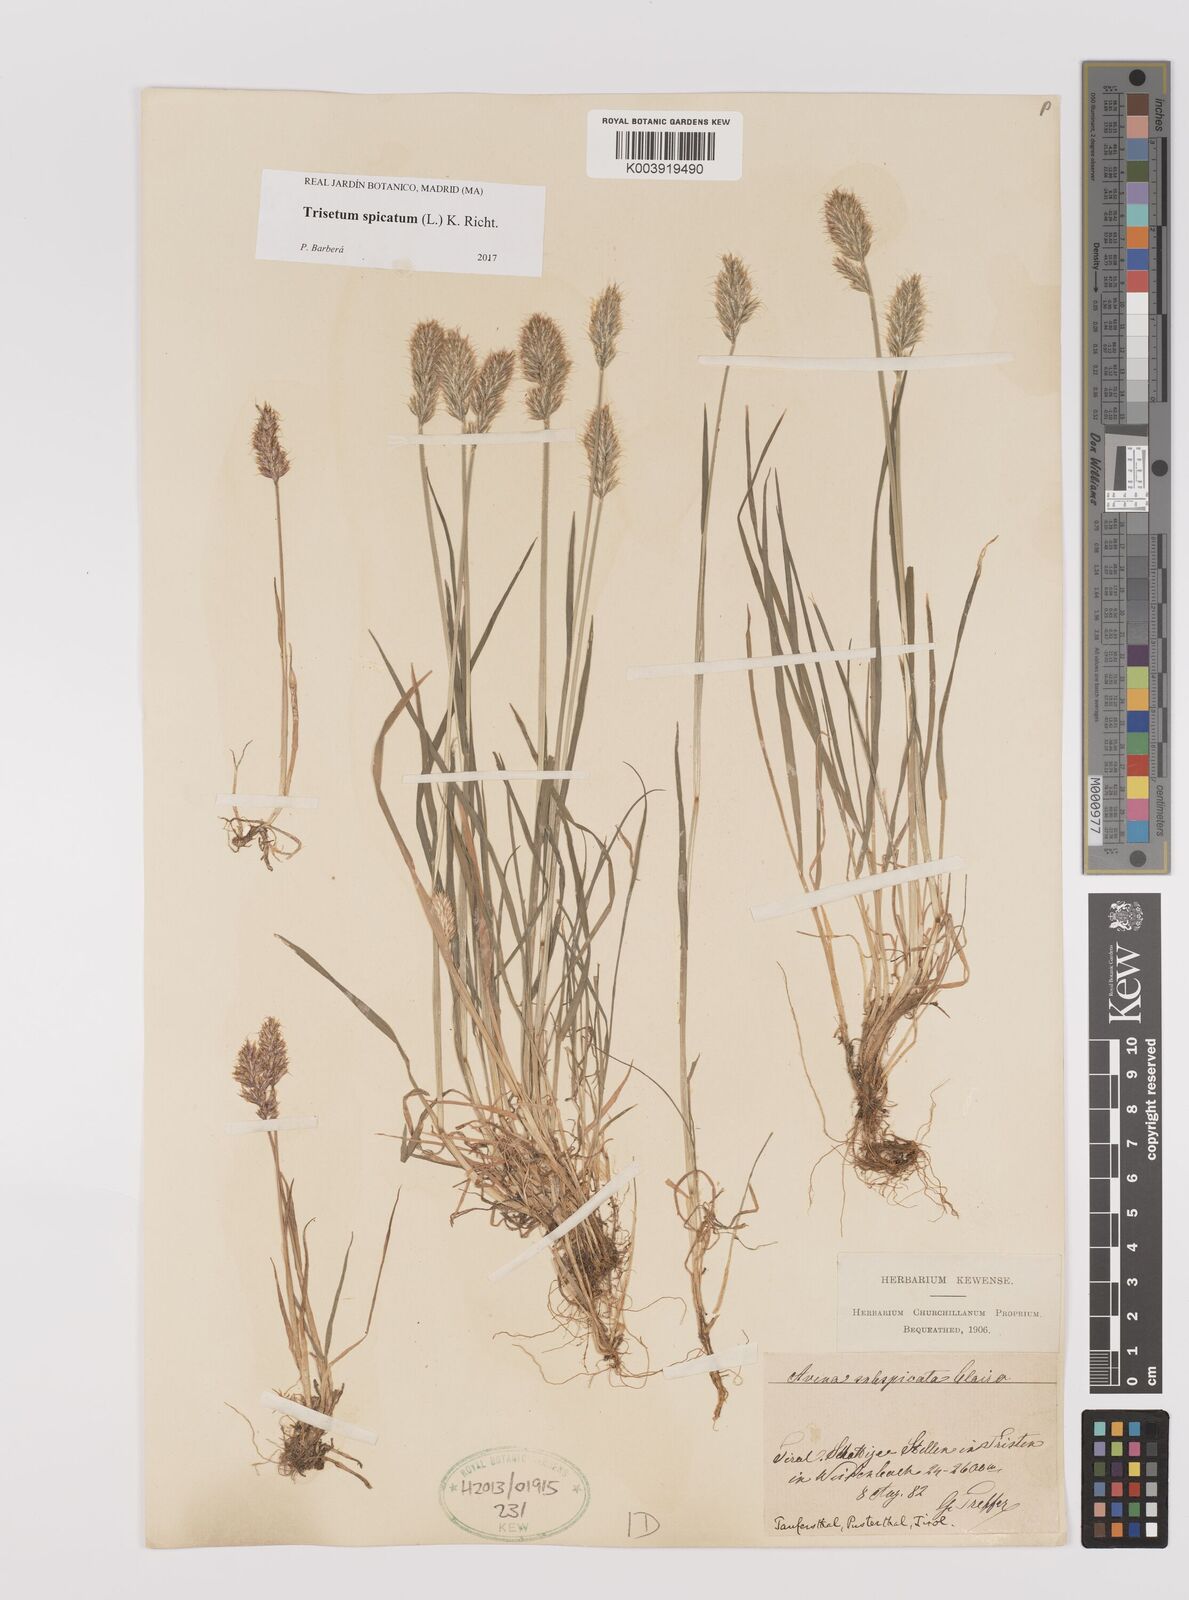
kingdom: Plantae
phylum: Tracheophyta
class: Liliopsida
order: Poales
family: Poaceae
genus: Koeleria
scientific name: Koeleria spicata
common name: Mountain trisetum
